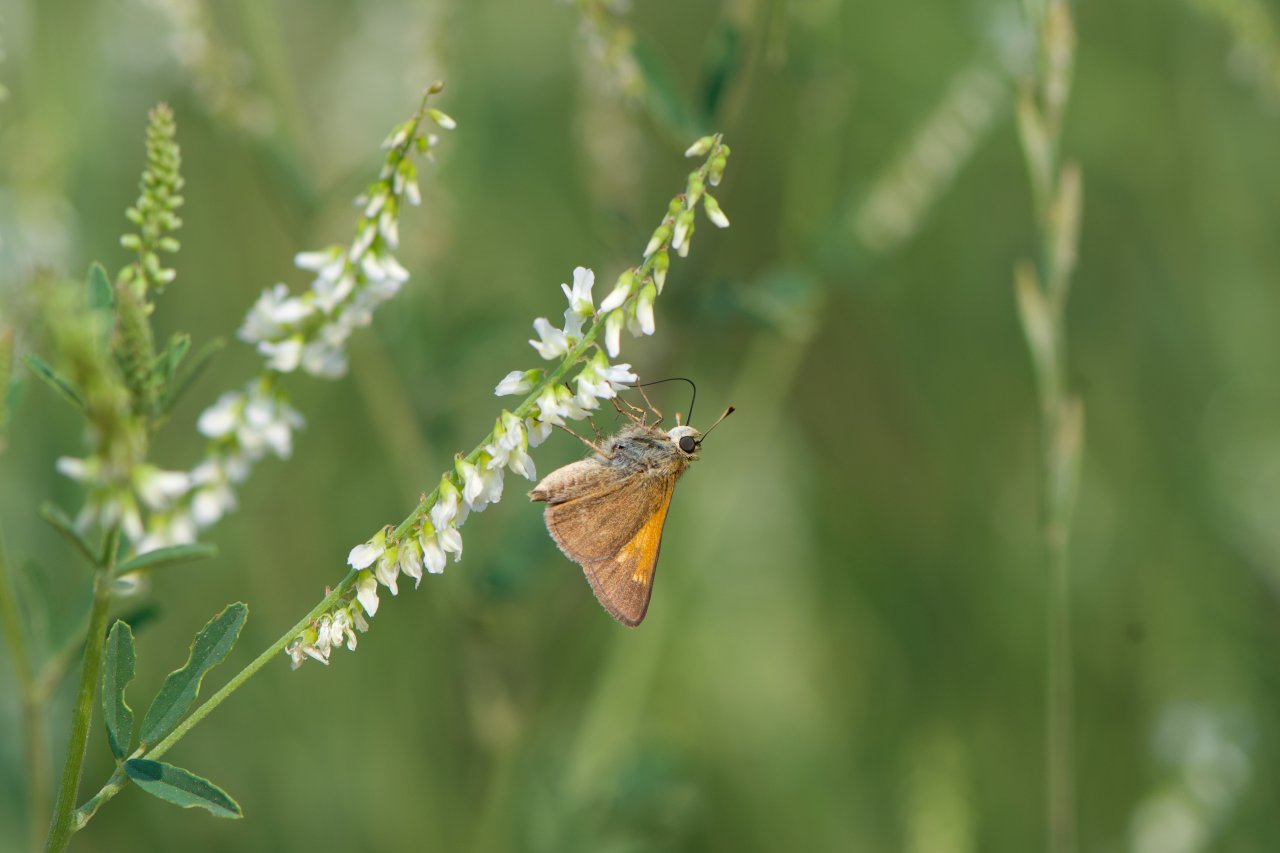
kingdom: Animalia
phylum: Arthropoda
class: Insecta
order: Lepidoptera
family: Hesperiidae
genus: Polites
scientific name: Polites themistocles
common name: Tawny-edged Skipper
